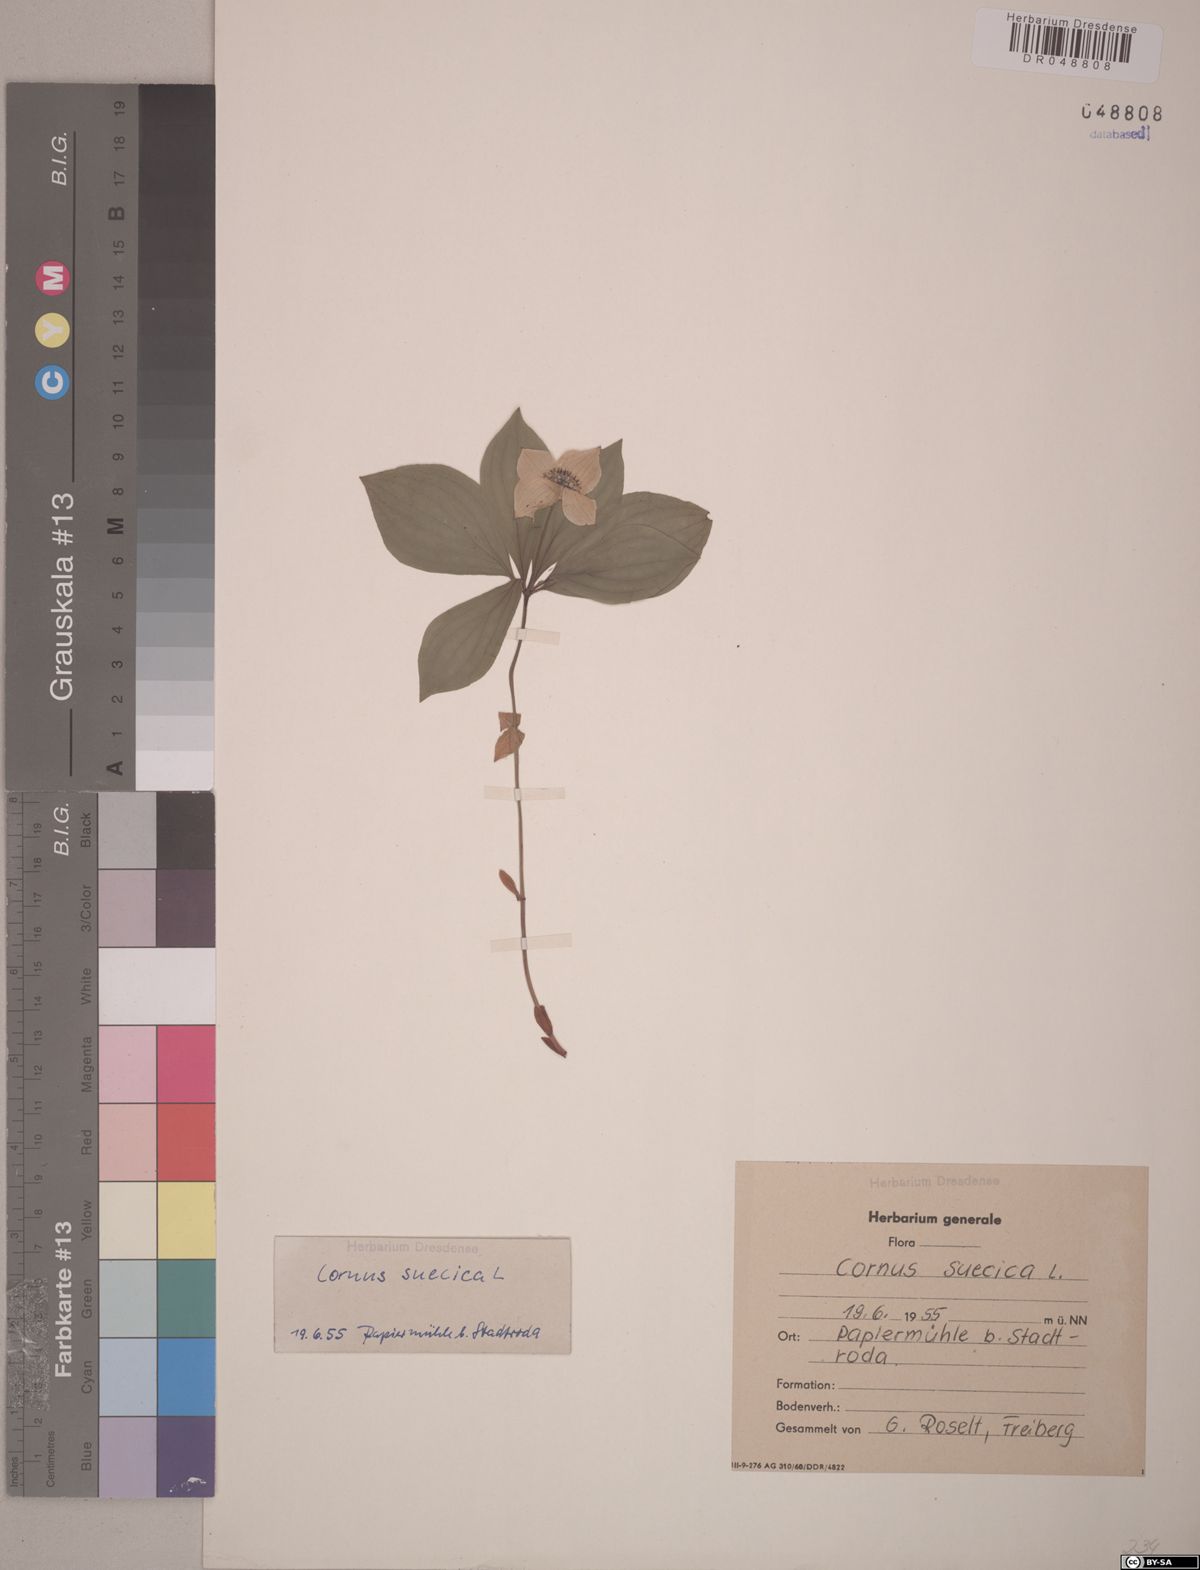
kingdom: Plantae
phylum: Tracheophyta
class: Magnoliopsida
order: Cornales
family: Cornaceae
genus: Cornus
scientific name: Cornus suecica
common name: Dwarf cornel
